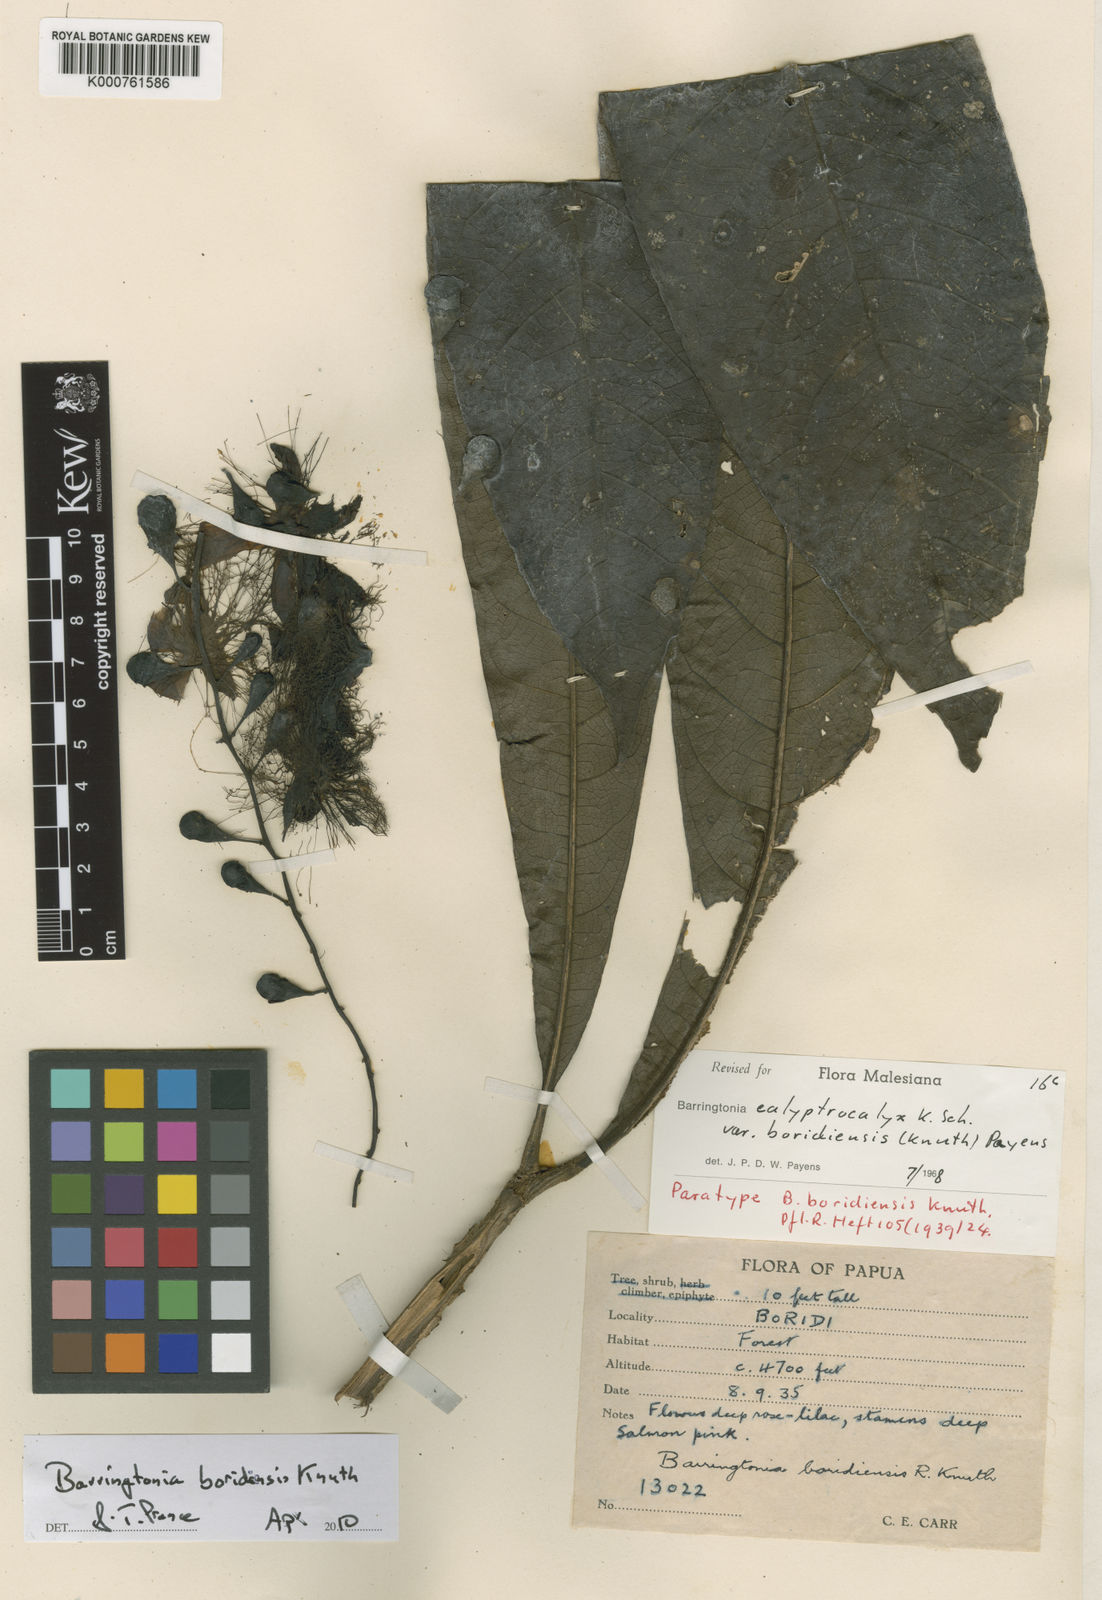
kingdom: Plantae
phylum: Tracheophyta
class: Magnoliopsida
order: Ericales
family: Lecythidaceae
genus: Barringtonia
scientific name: Barringtonia calyptrocalyx
